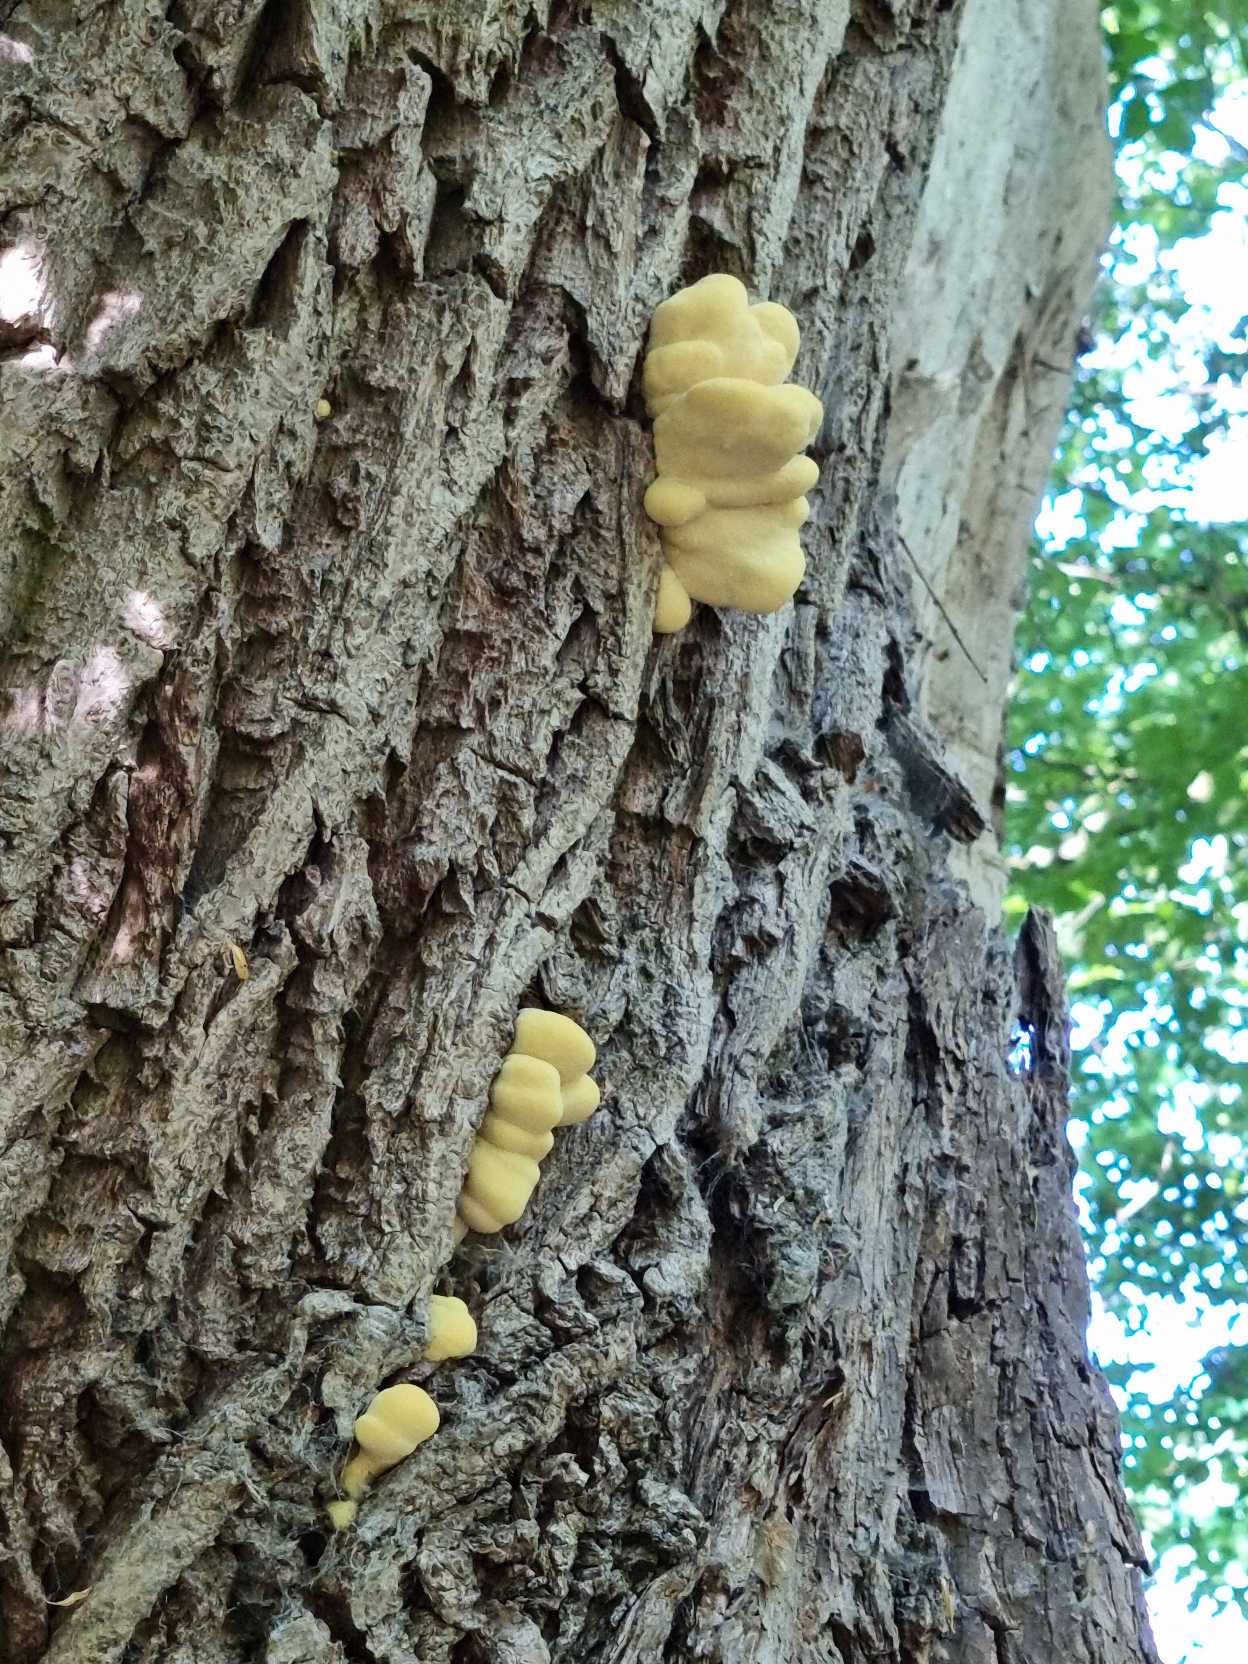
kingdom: Fungi
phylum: Basidiomycota
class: Agaricomycetes
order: Polyporales
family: Laetiporaceae
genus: Laetiporus
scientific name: Laetiporus sulphureus
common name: Svovlporesvamp
